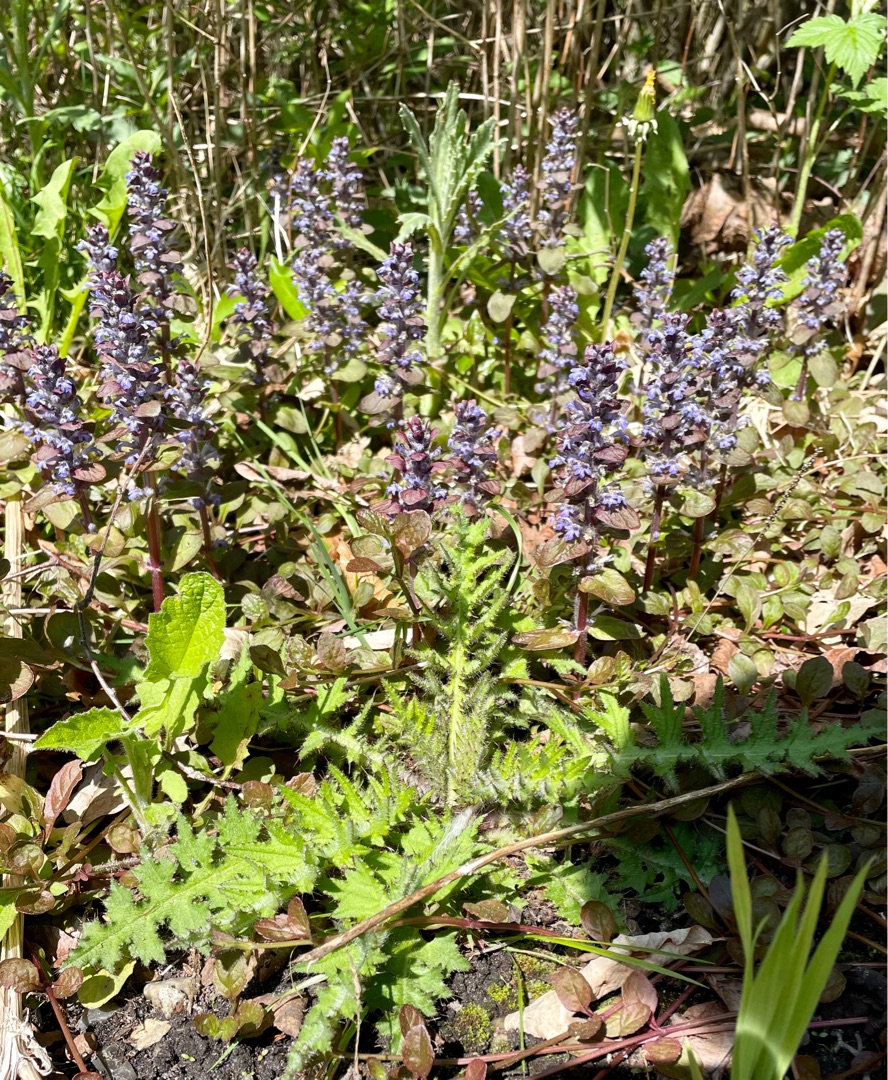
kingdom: Plantae
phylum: Tracheophyta
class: Magnoliopsida
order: Lamiales
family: Lamiaceae
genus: Ajuga
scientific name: Ajuga reptans
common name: Krybende læbeløs
